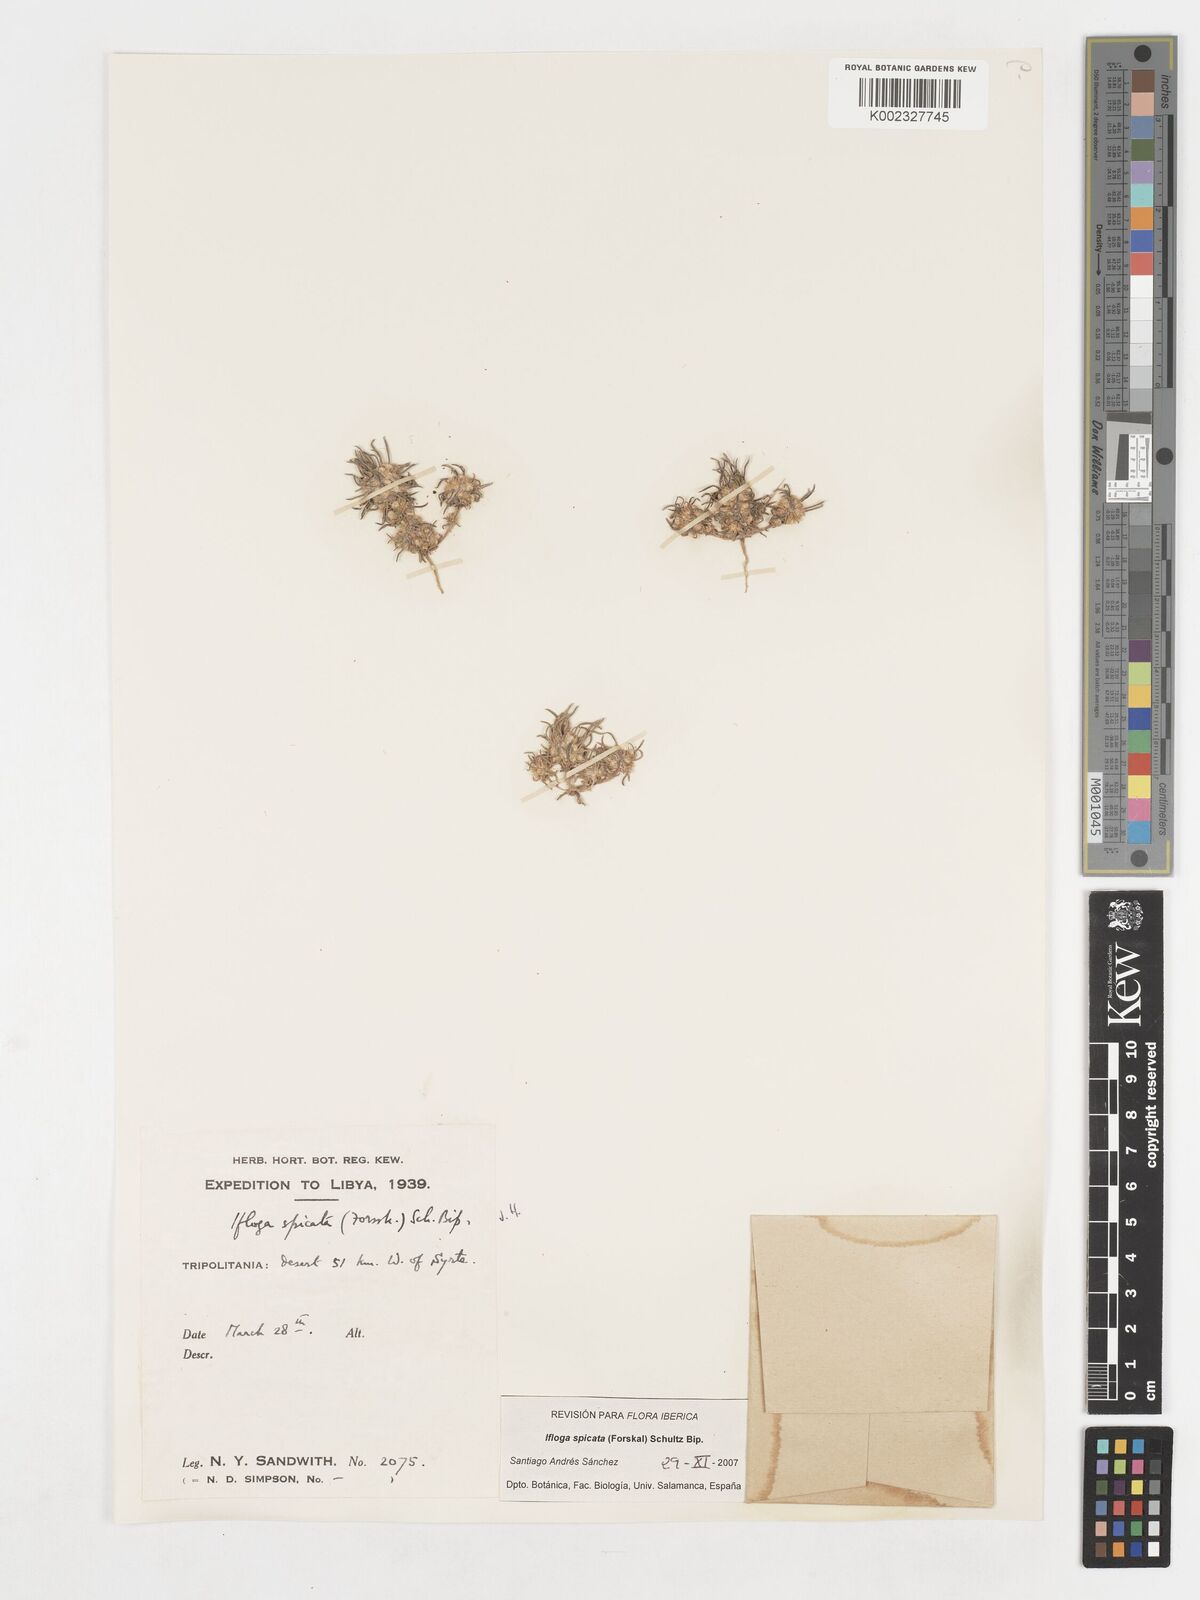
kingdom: Plantae
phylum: Tracheophyta
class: Magnoliopsida
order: Asterales
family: Asteraceae
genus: Ifloga
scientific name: Ifloga spicata
